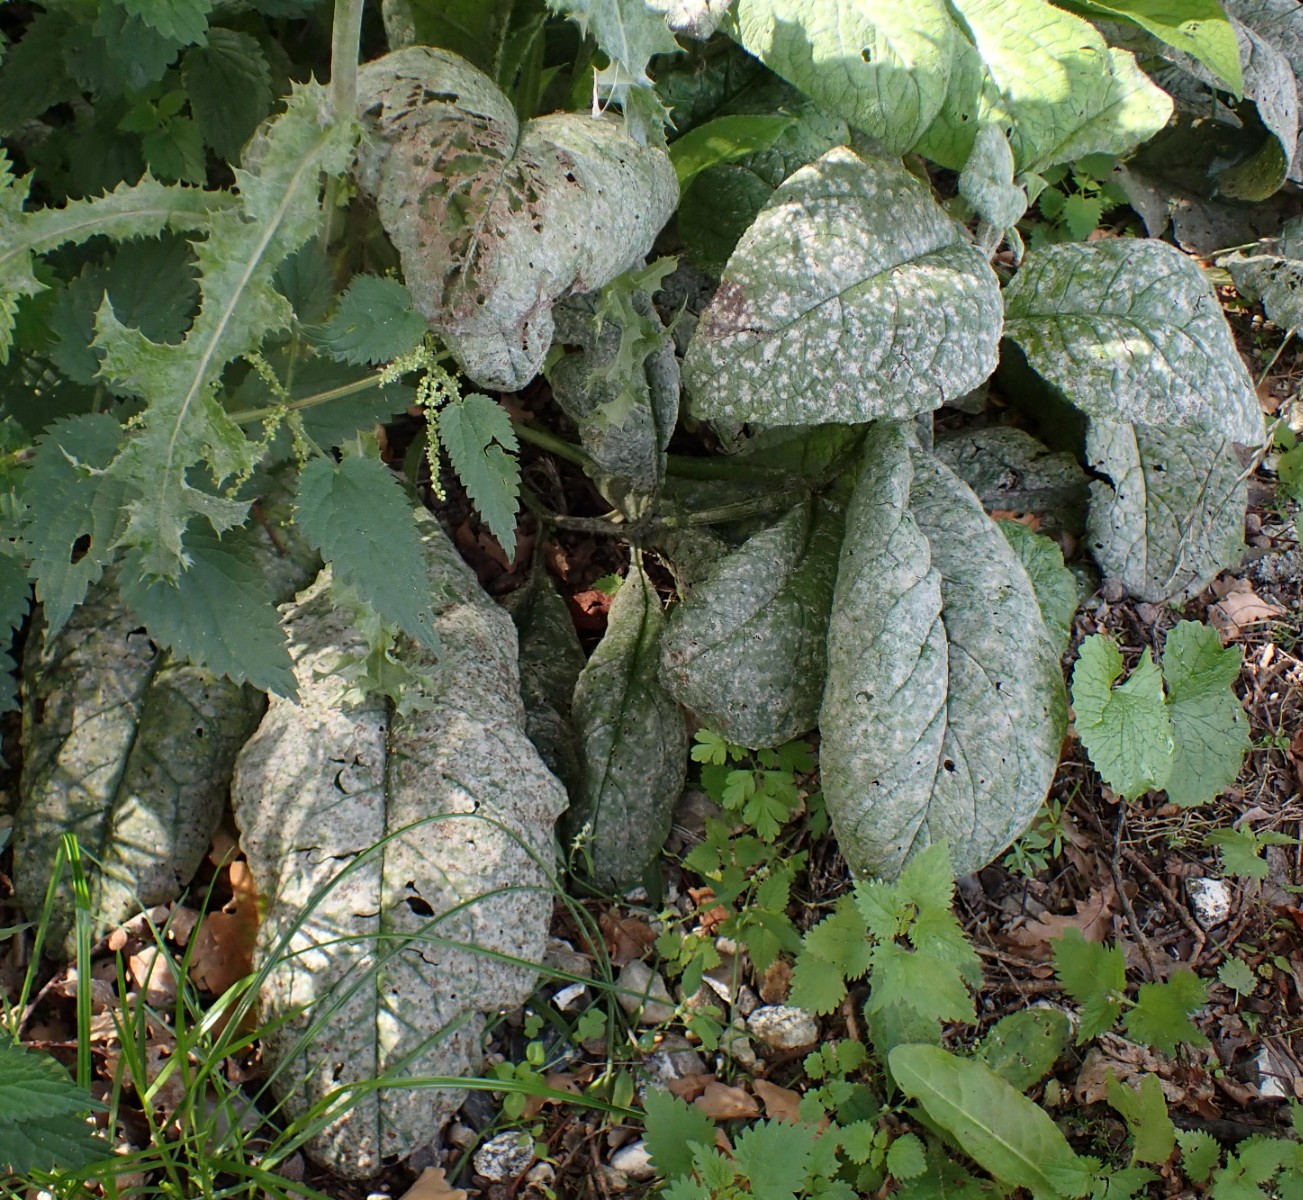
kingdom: Fungi
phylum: Ascomycota
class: Leotiomycetes
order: Helotiales
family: Erysiphaceae
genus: Golovinomyces
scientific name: Golovinomyces cynoglossi
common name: rublad-meldug
